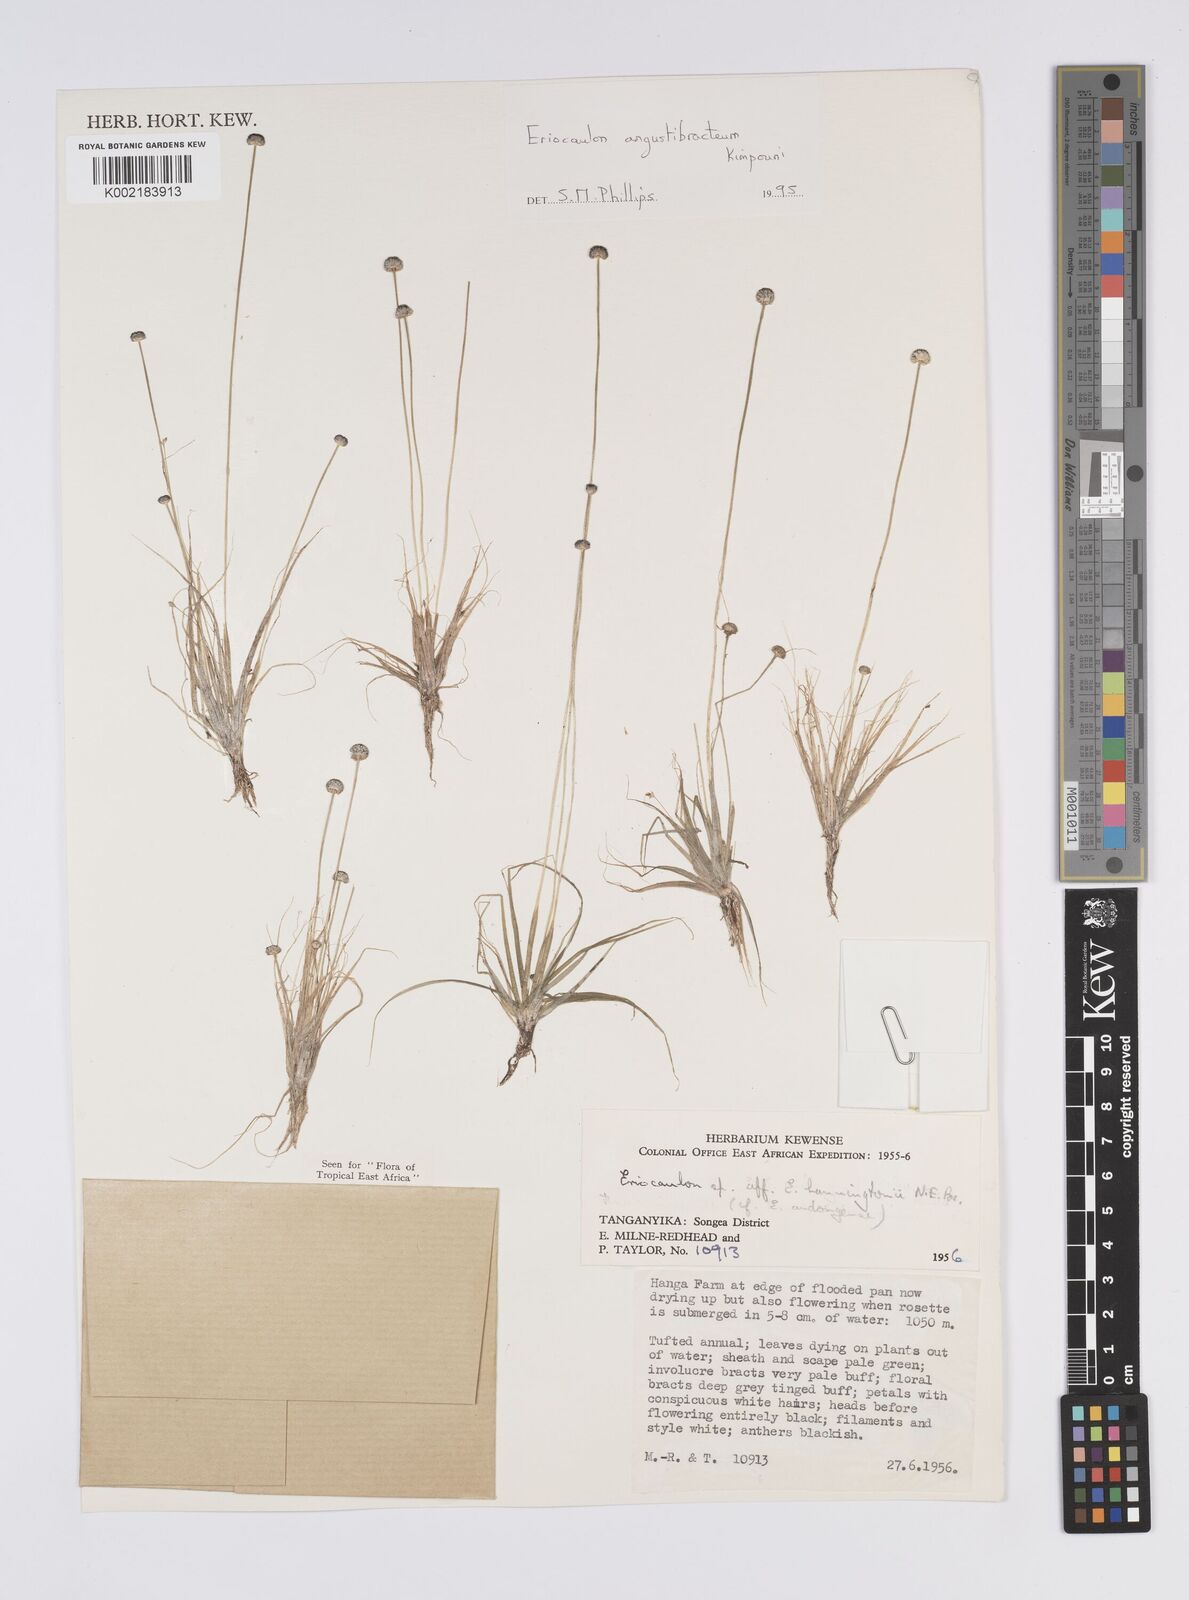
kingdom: Plantae
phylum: Tracheophyta
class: Liliopsida
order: Poales
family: Eriocaulaceae
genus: Eriocaulon
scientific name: Eriocaulon angustibracteum
